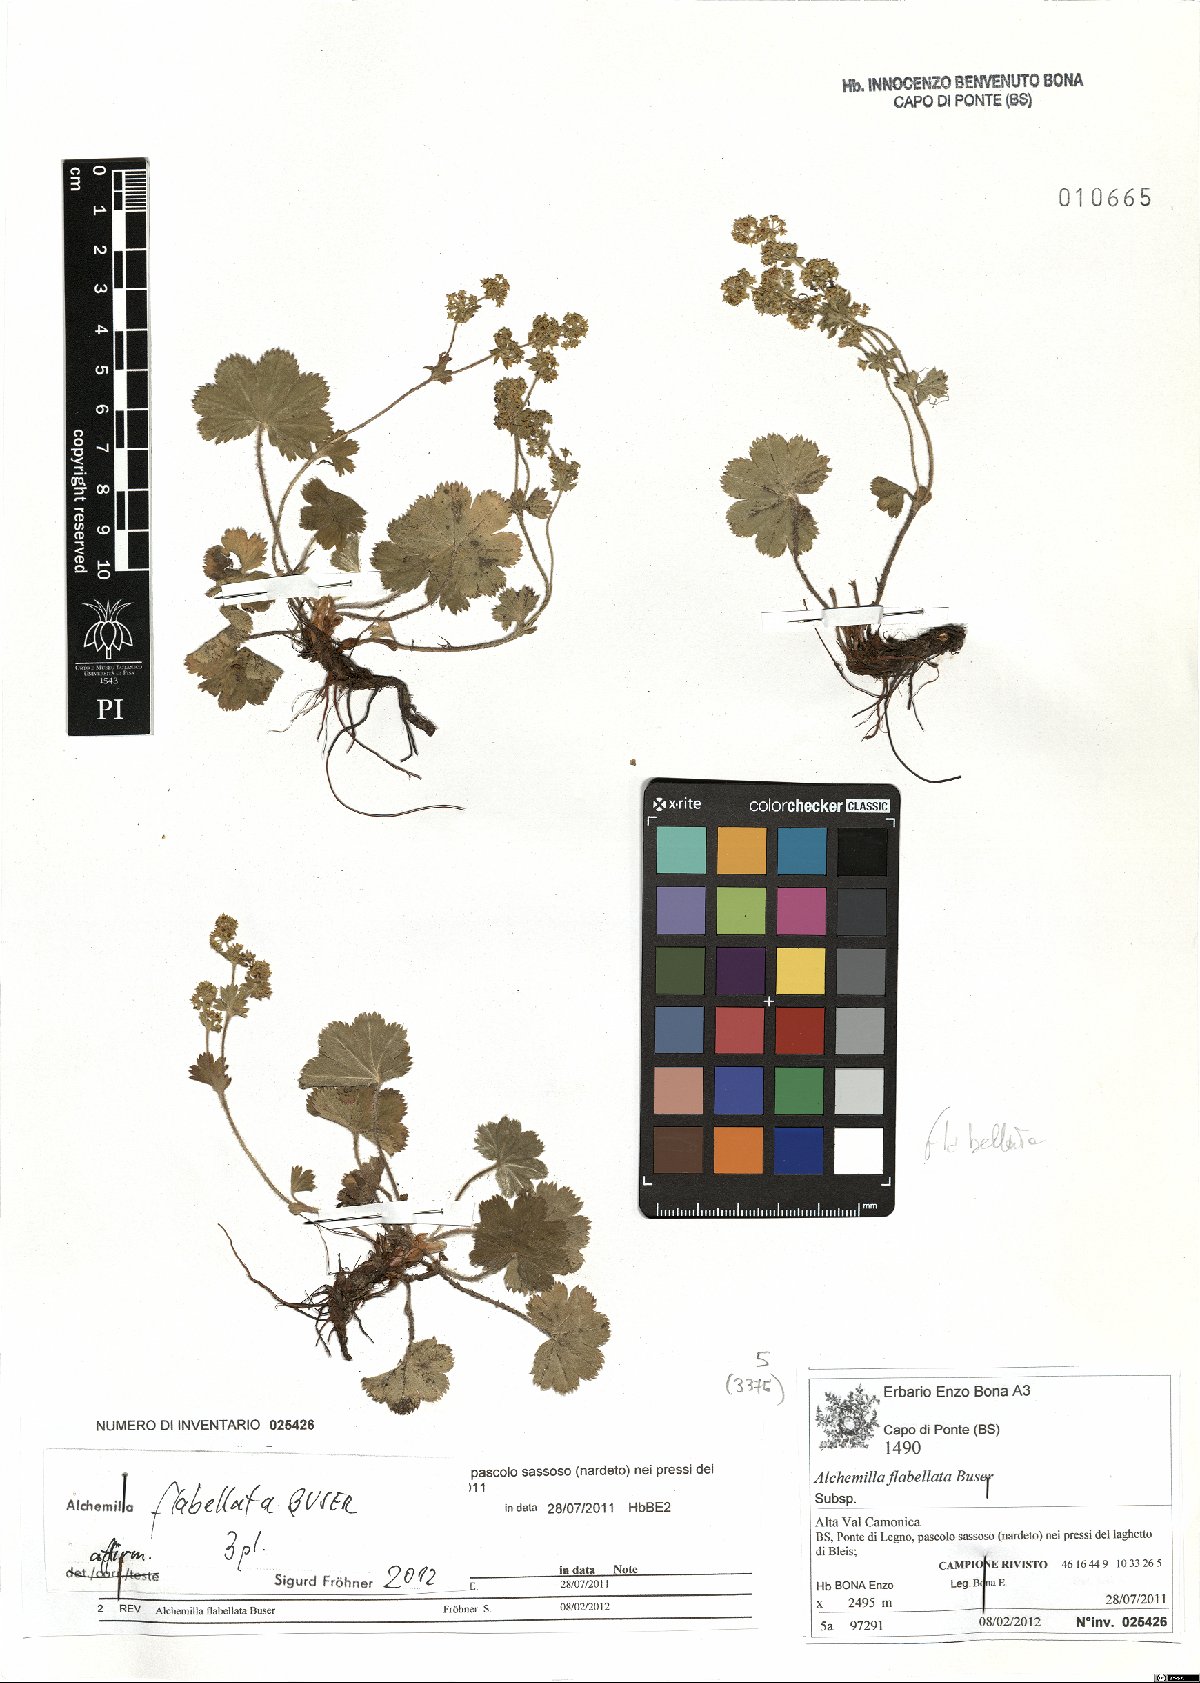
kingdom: Plantae
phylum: Tracheophyta
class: Magnoliopsida
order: Rosales
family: Rosaceae
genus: Alchemilla
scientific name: Alchemilla flabellata
